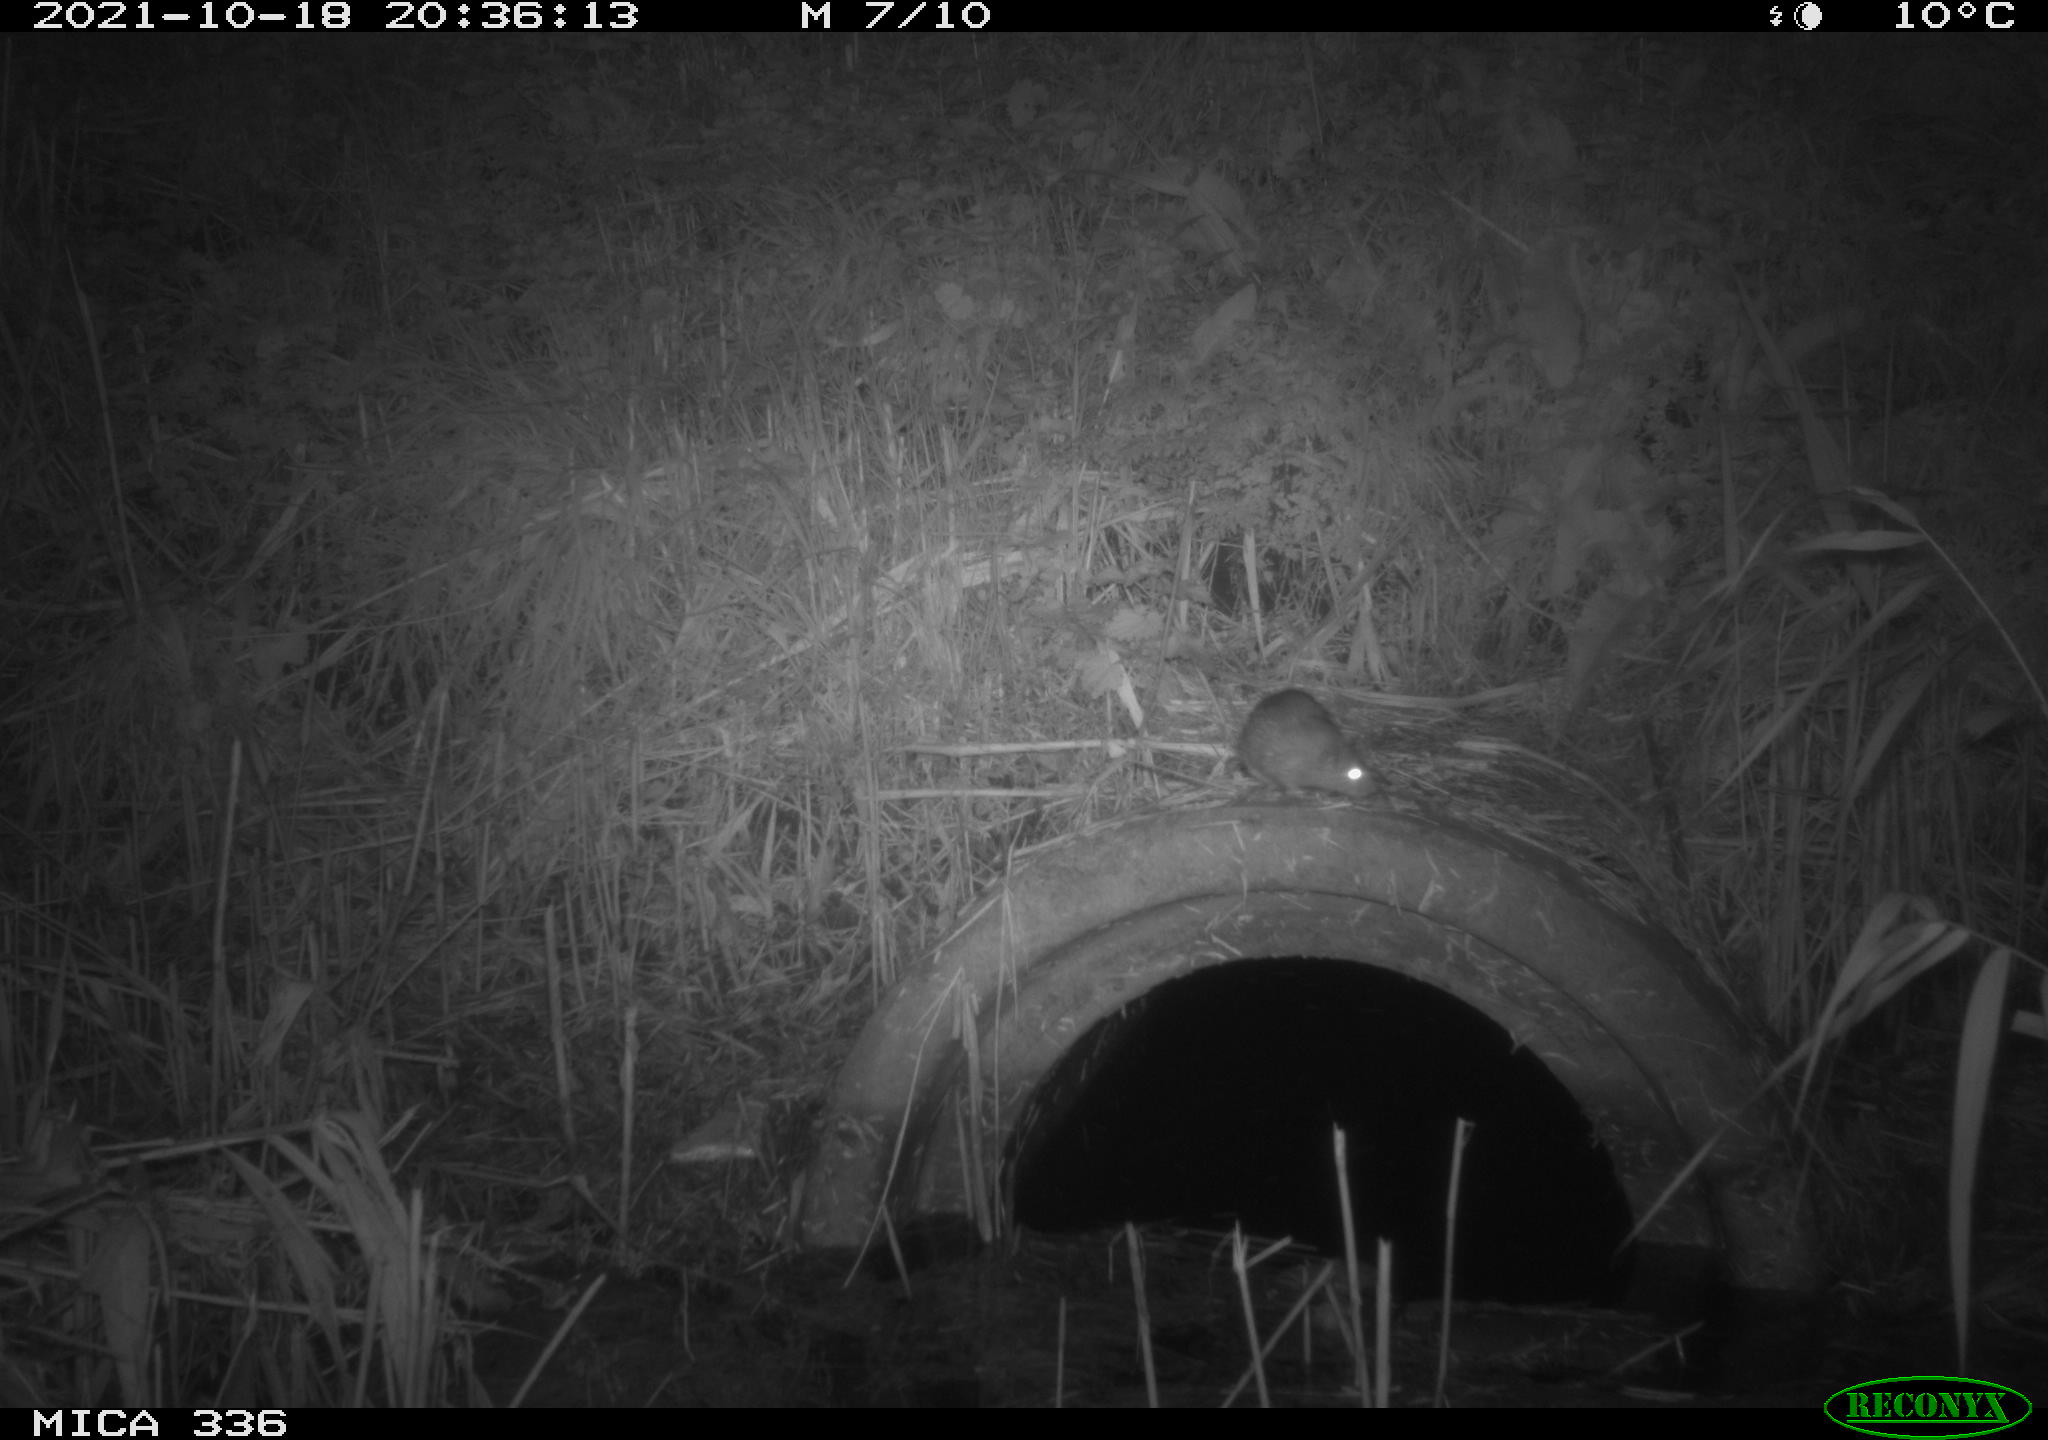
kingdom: Animalia
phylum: Chordata
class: Mammalia
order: Rodentia
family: Muridae
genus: Rattus
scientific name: Rattus norvegicus
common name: Brown rat
